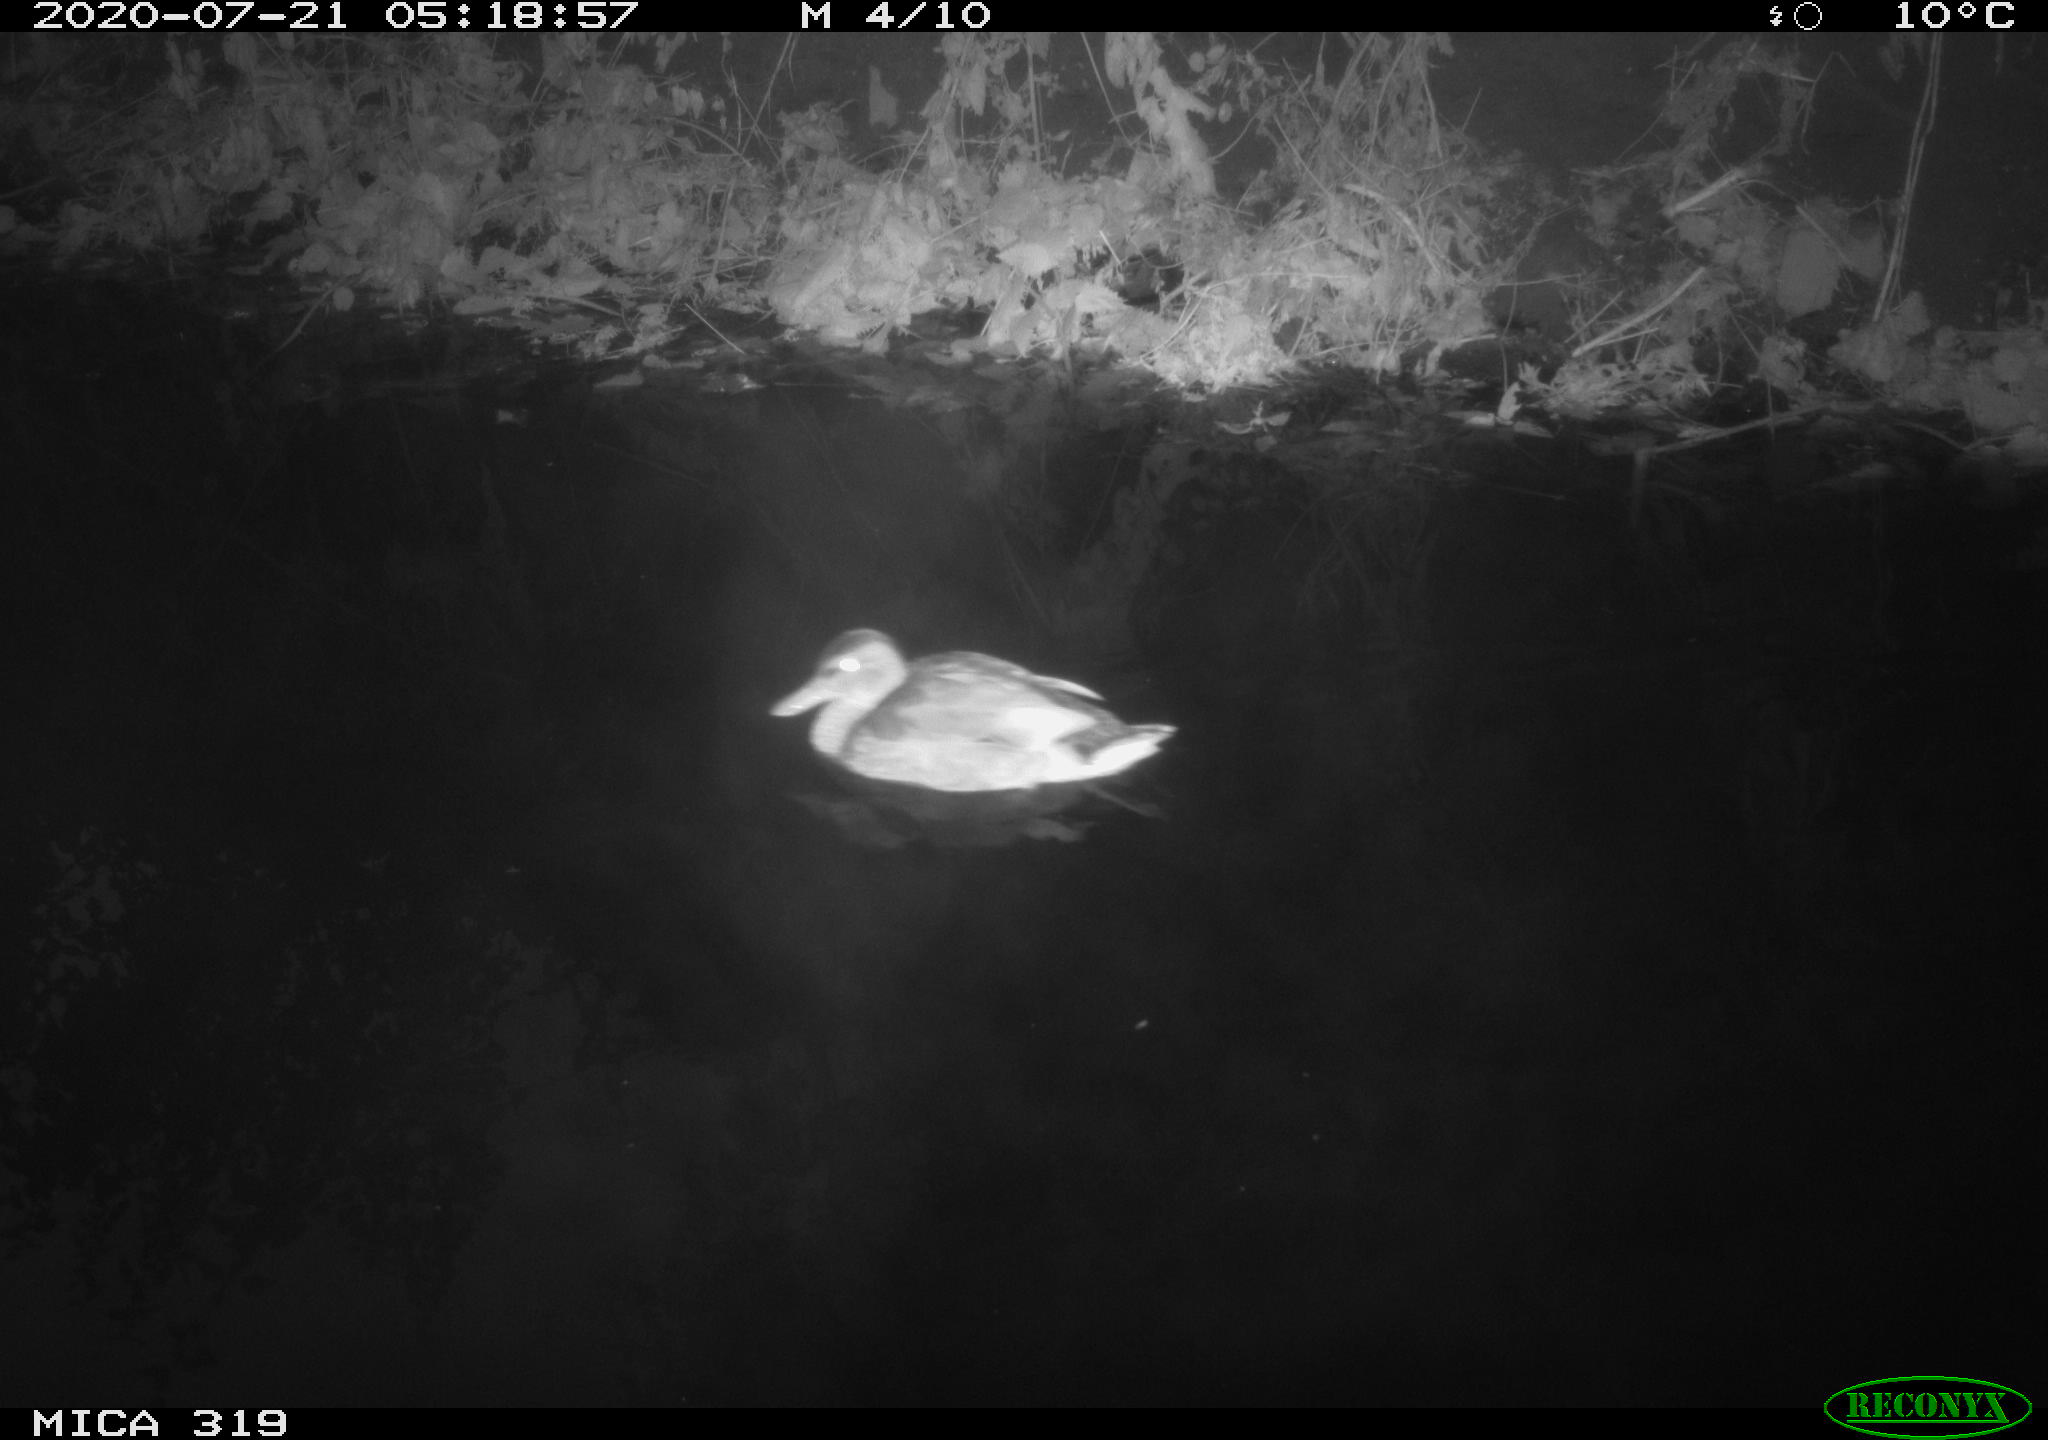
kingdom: Animalia
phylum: Chordata
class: Aves
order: Anseriformes
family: Anatidae
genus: Anas
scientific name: Anas platyrhynchos
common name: Mallard
